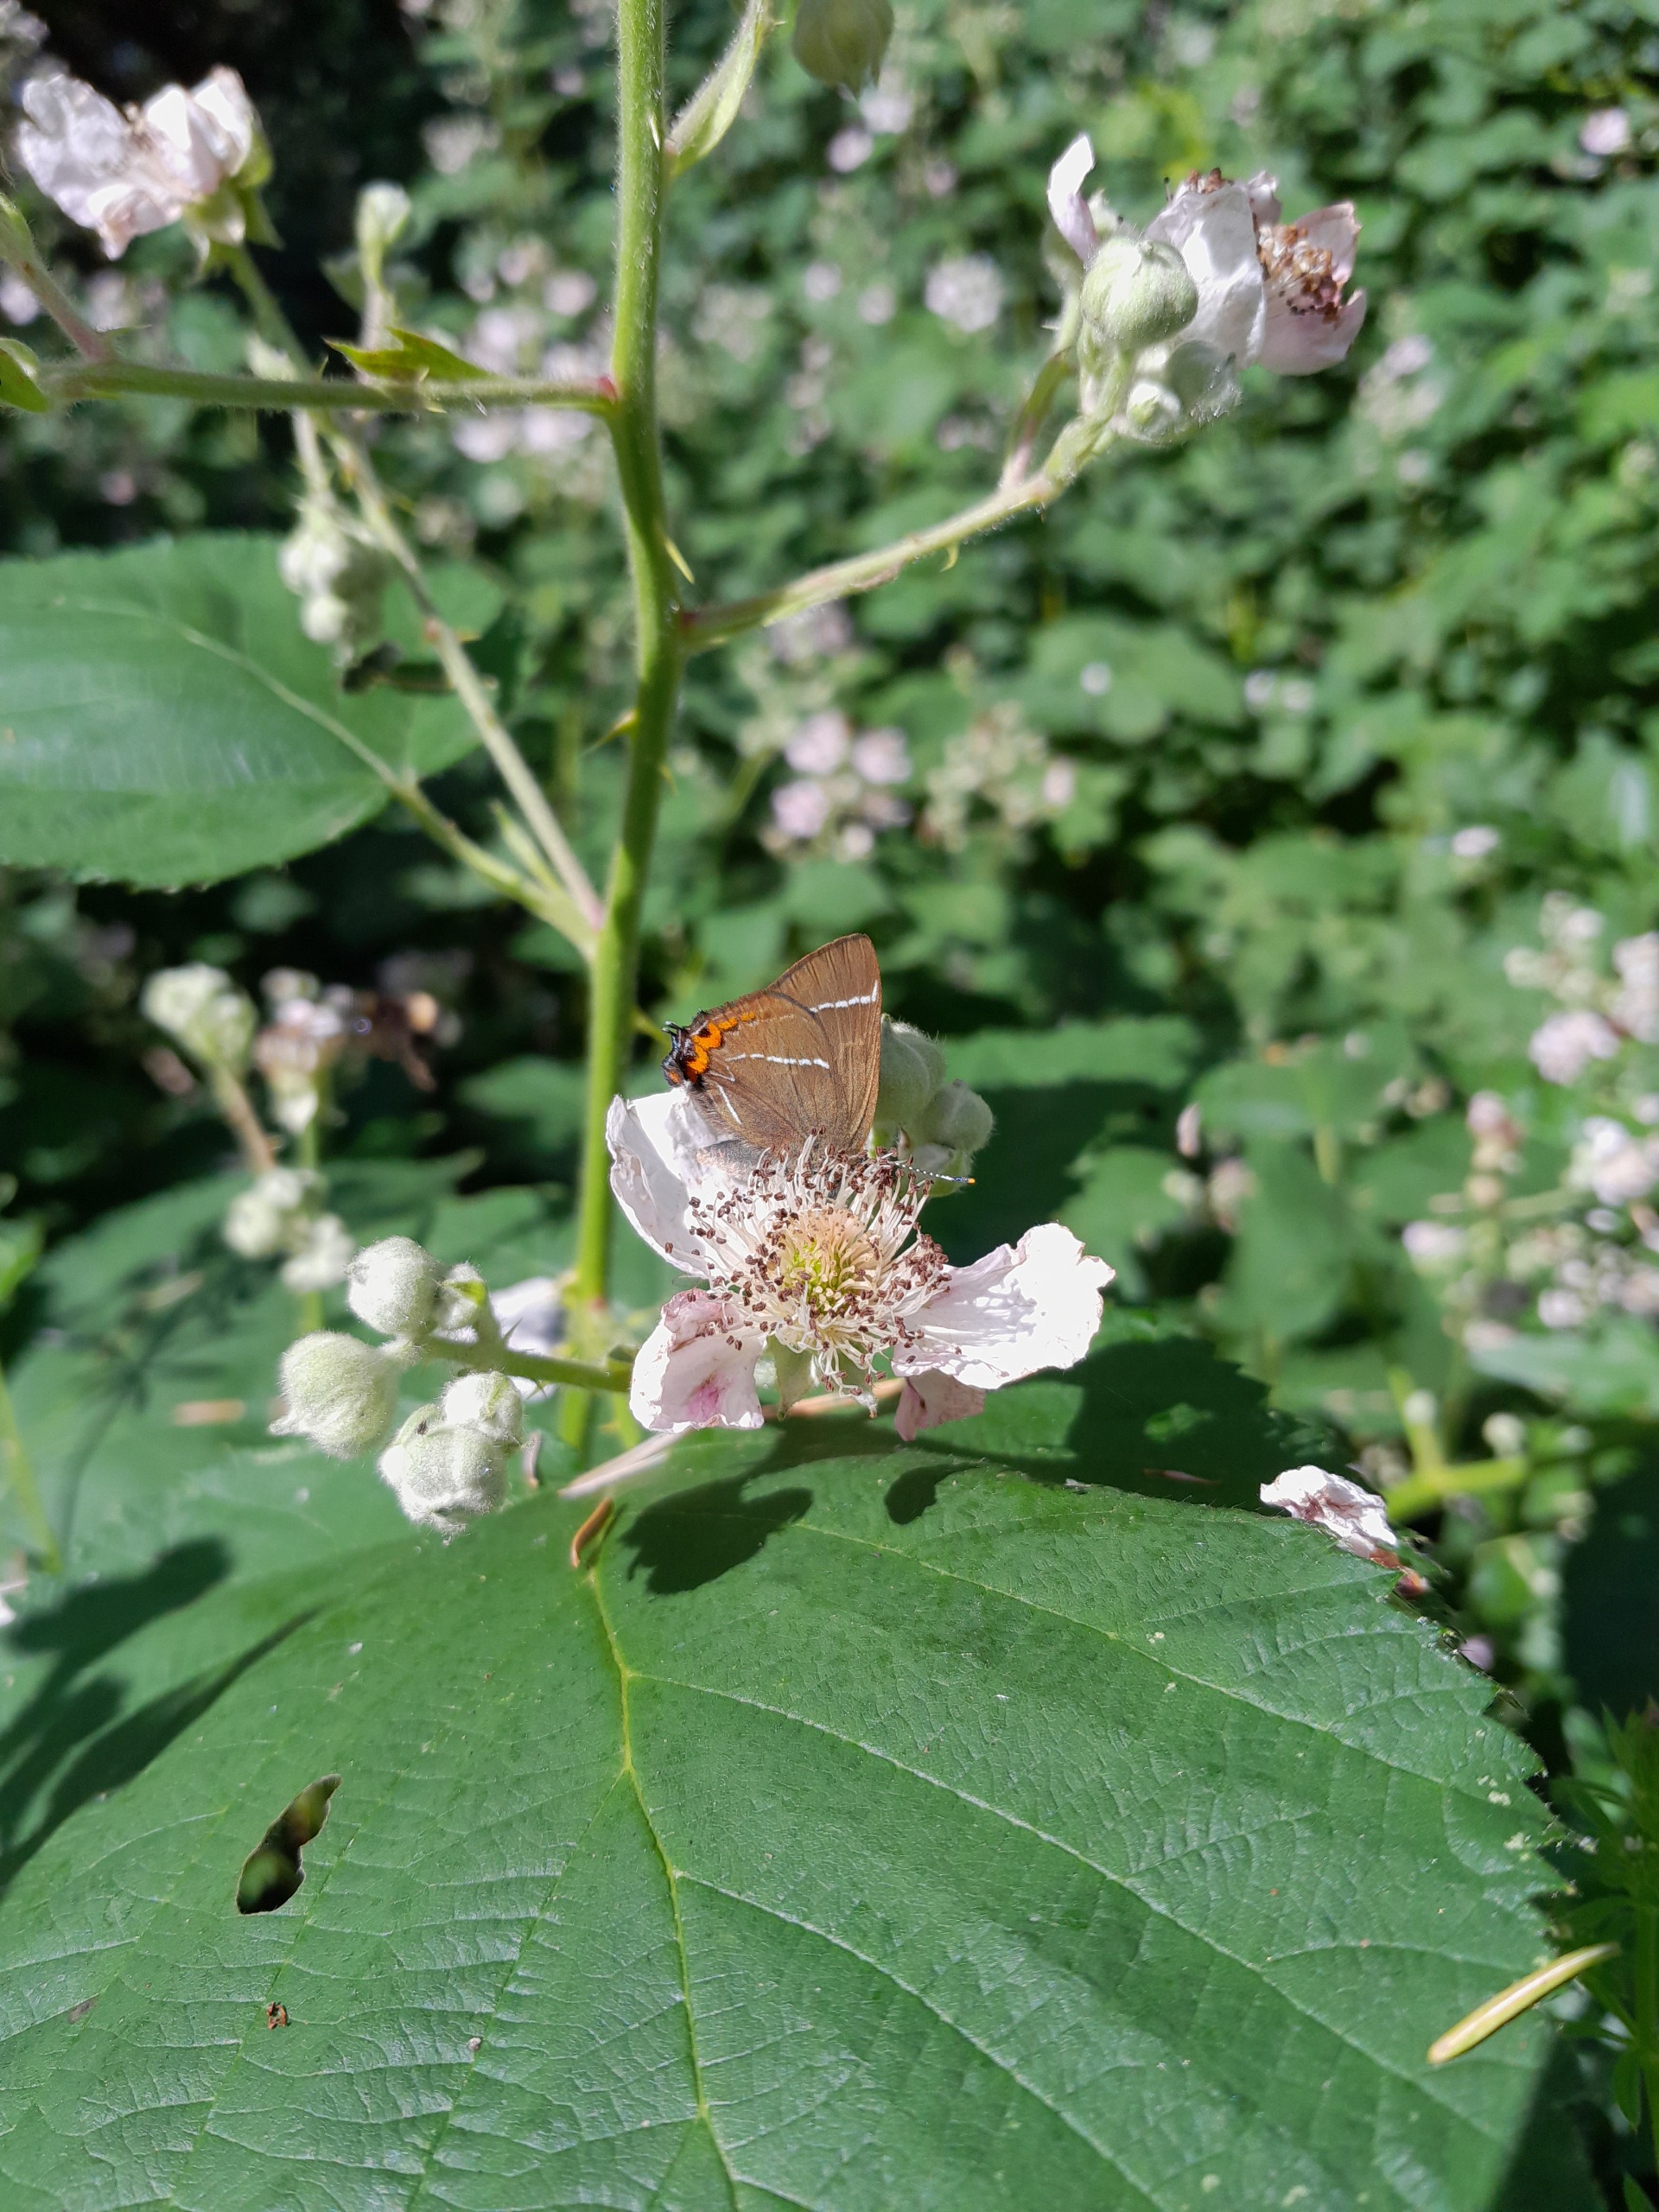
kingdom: Animalia
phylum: Arthropoda
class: Insecta
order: Lepidoptera
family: Lycaenidae
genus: Satyrium
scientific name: Satyrium w-album
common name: Det hvide W
